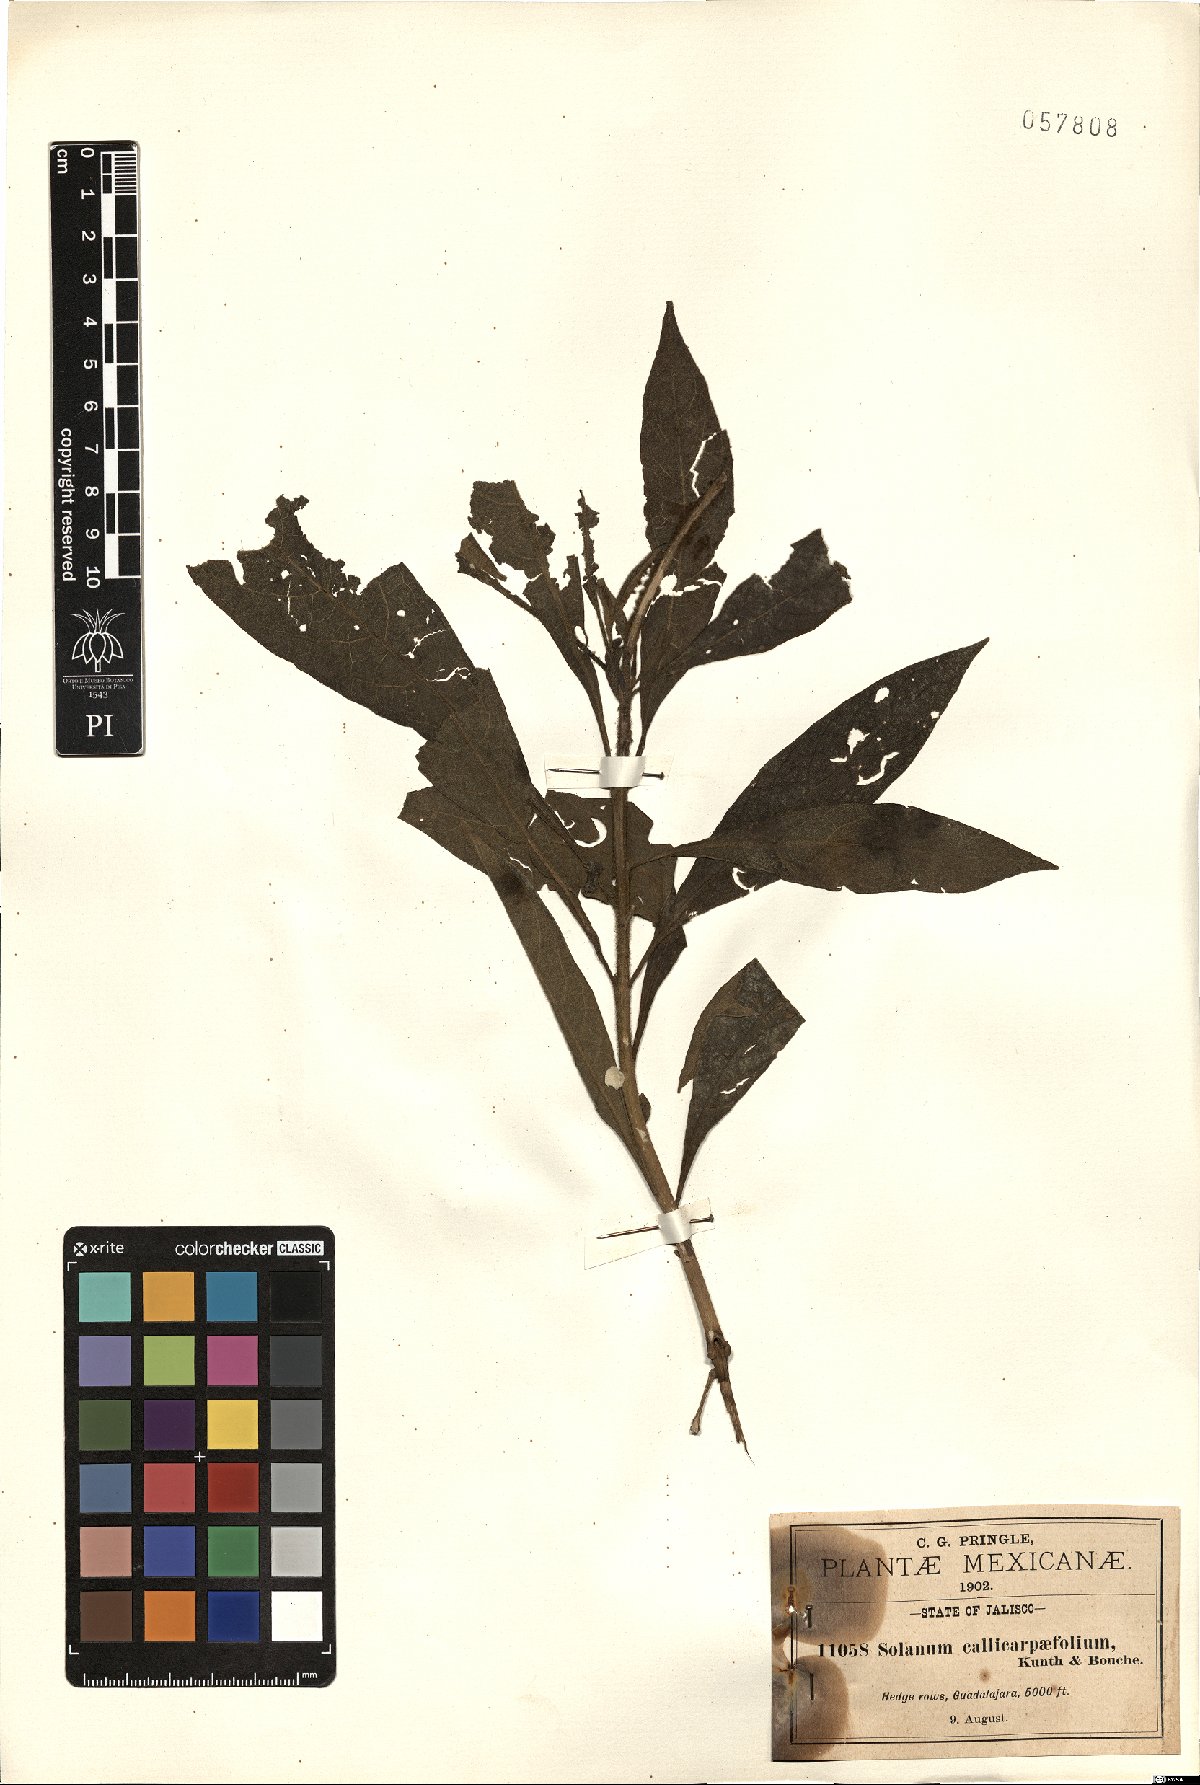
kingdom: Plantae
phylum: Tracheophyta
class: Magnoliopsida
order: Solanales
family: Solanaceae
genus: Solanum
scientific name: Solanum bicolor
